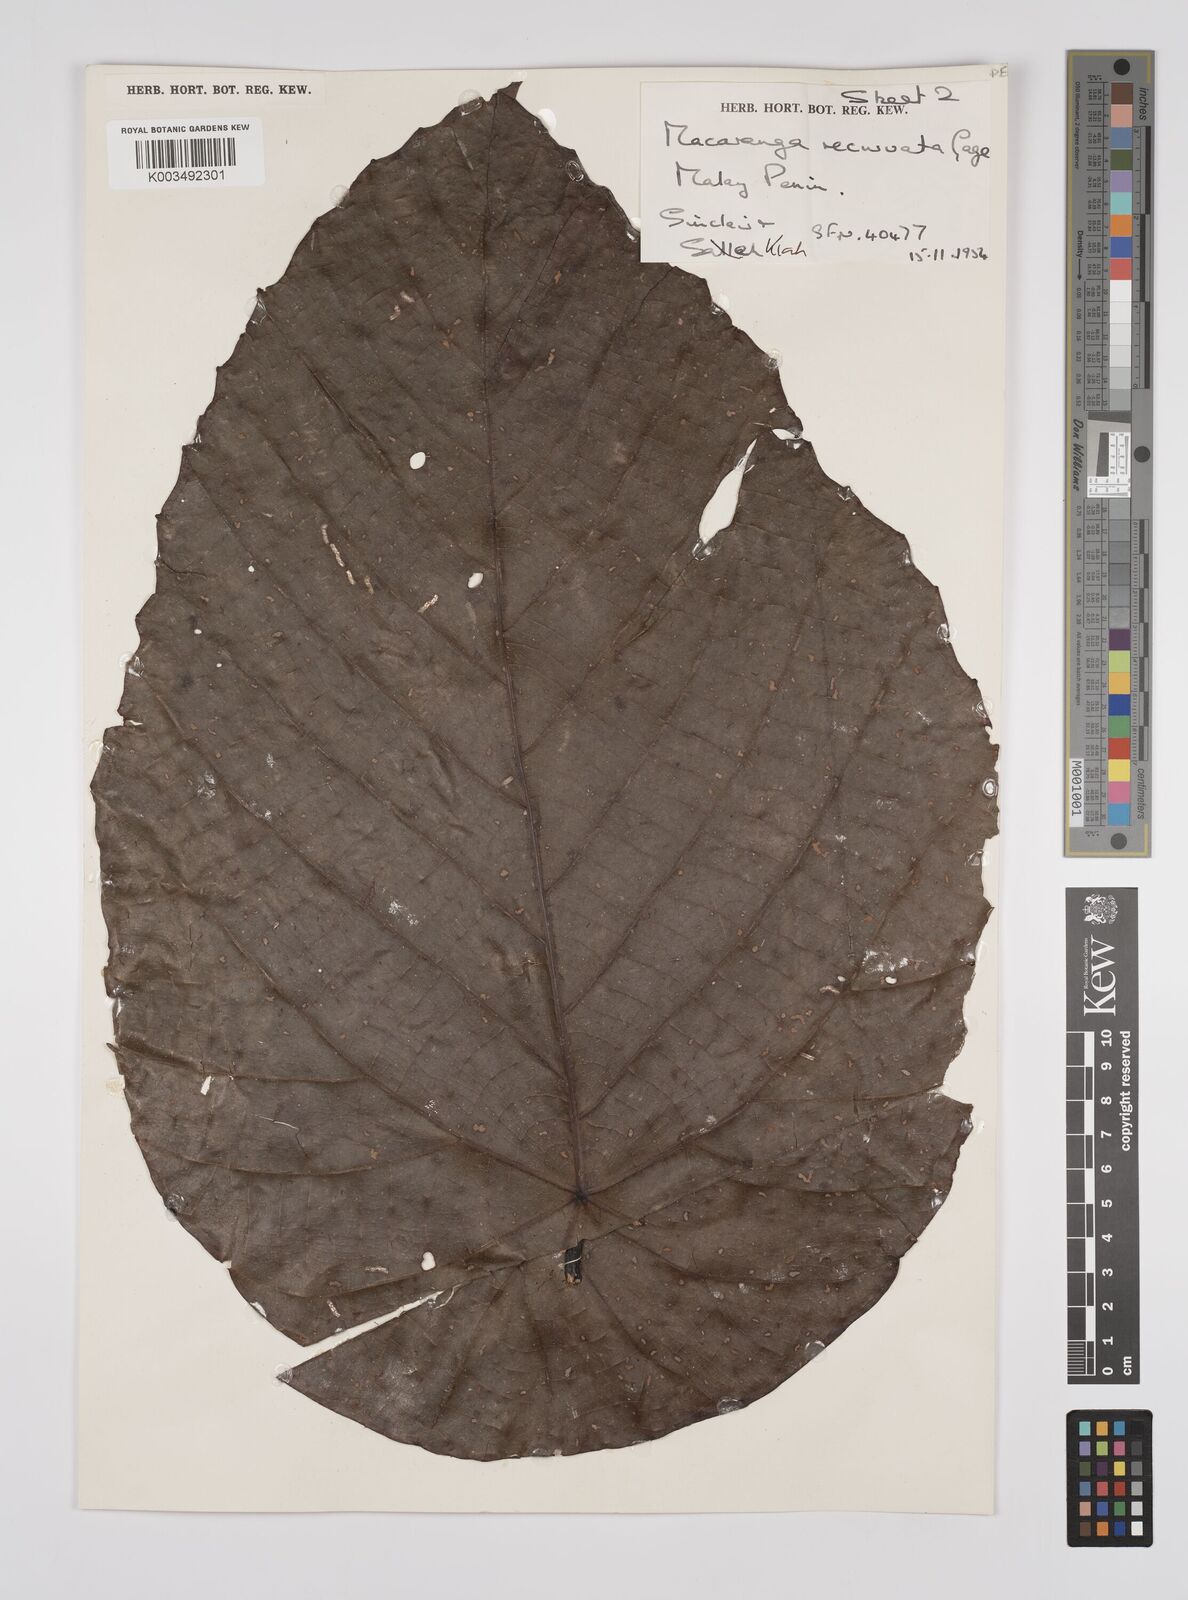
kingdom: Plantae
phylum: Tracheophyta
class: Magnoliopsida
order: Malpighiales
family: Euphorbiaceae
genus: Macaranga
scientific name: Macaranga recurvata
